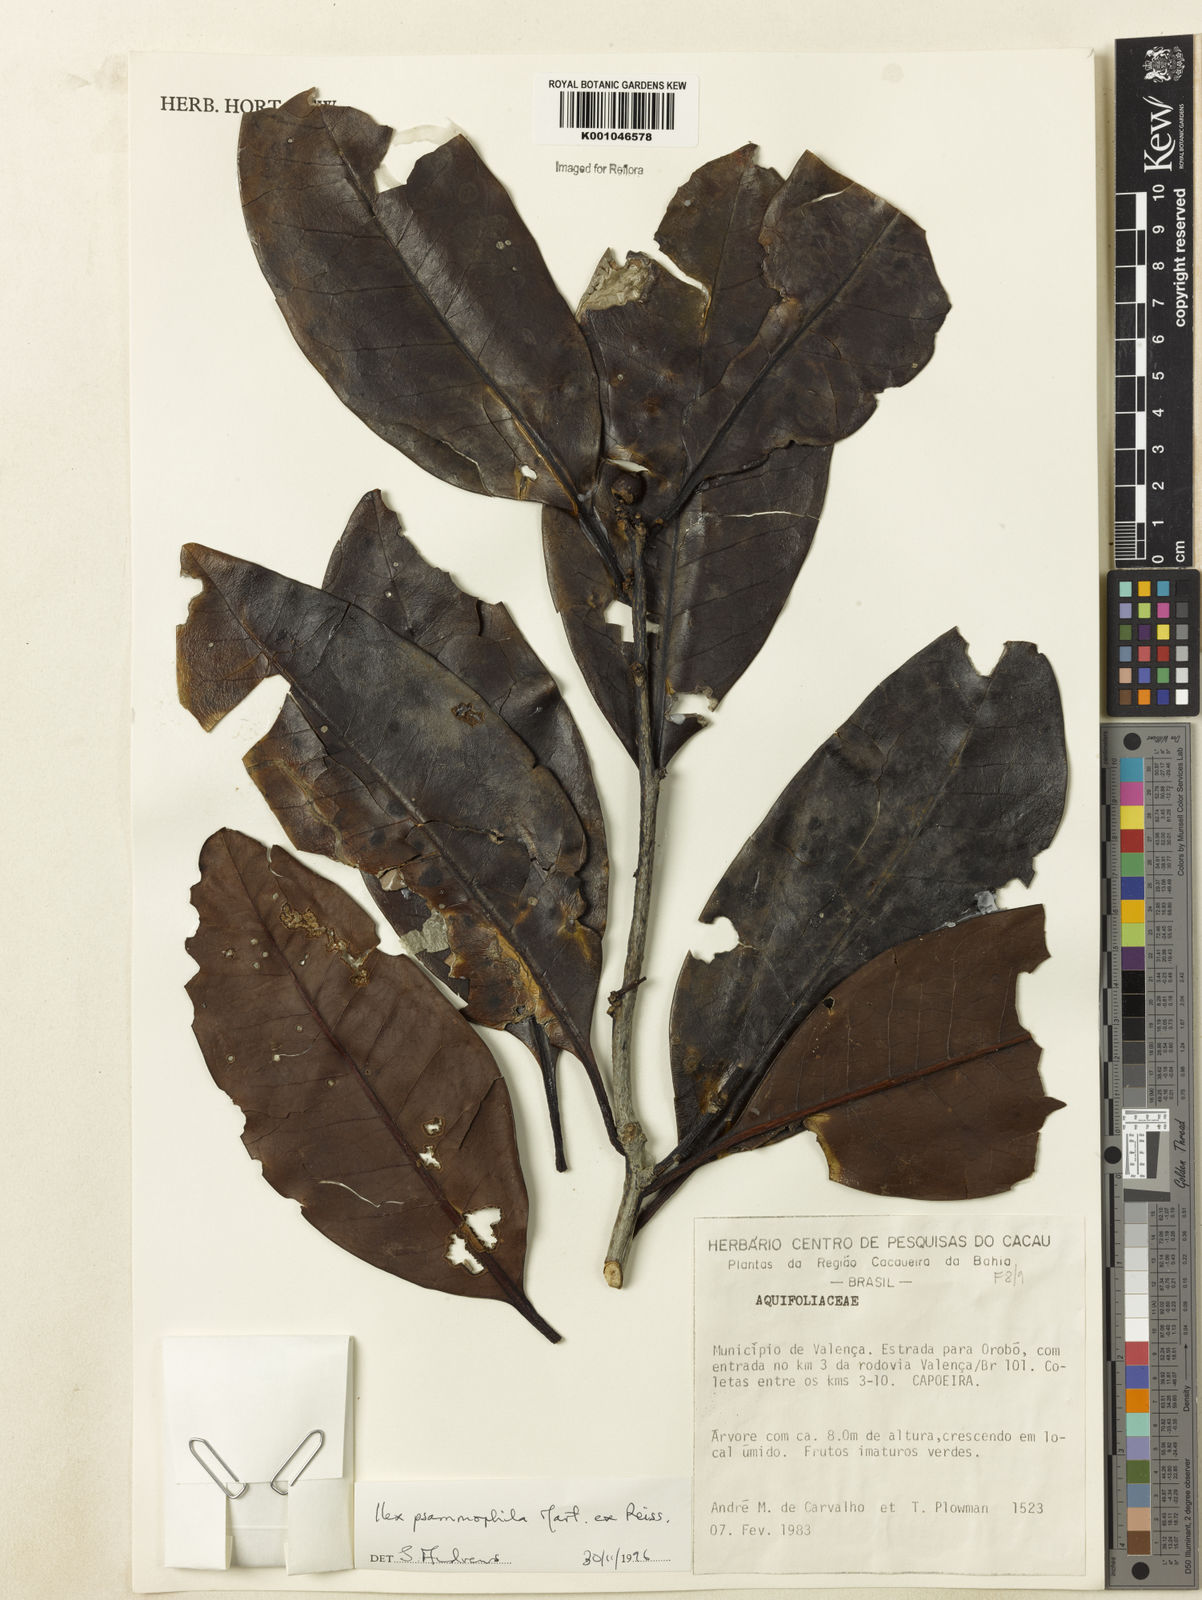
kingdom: Plantae
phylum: Tracheophyta
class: Magnoliopsida
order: Aquifoliales
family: Aquifoliaceae
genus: Ilex
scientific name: Ilex psammophila
